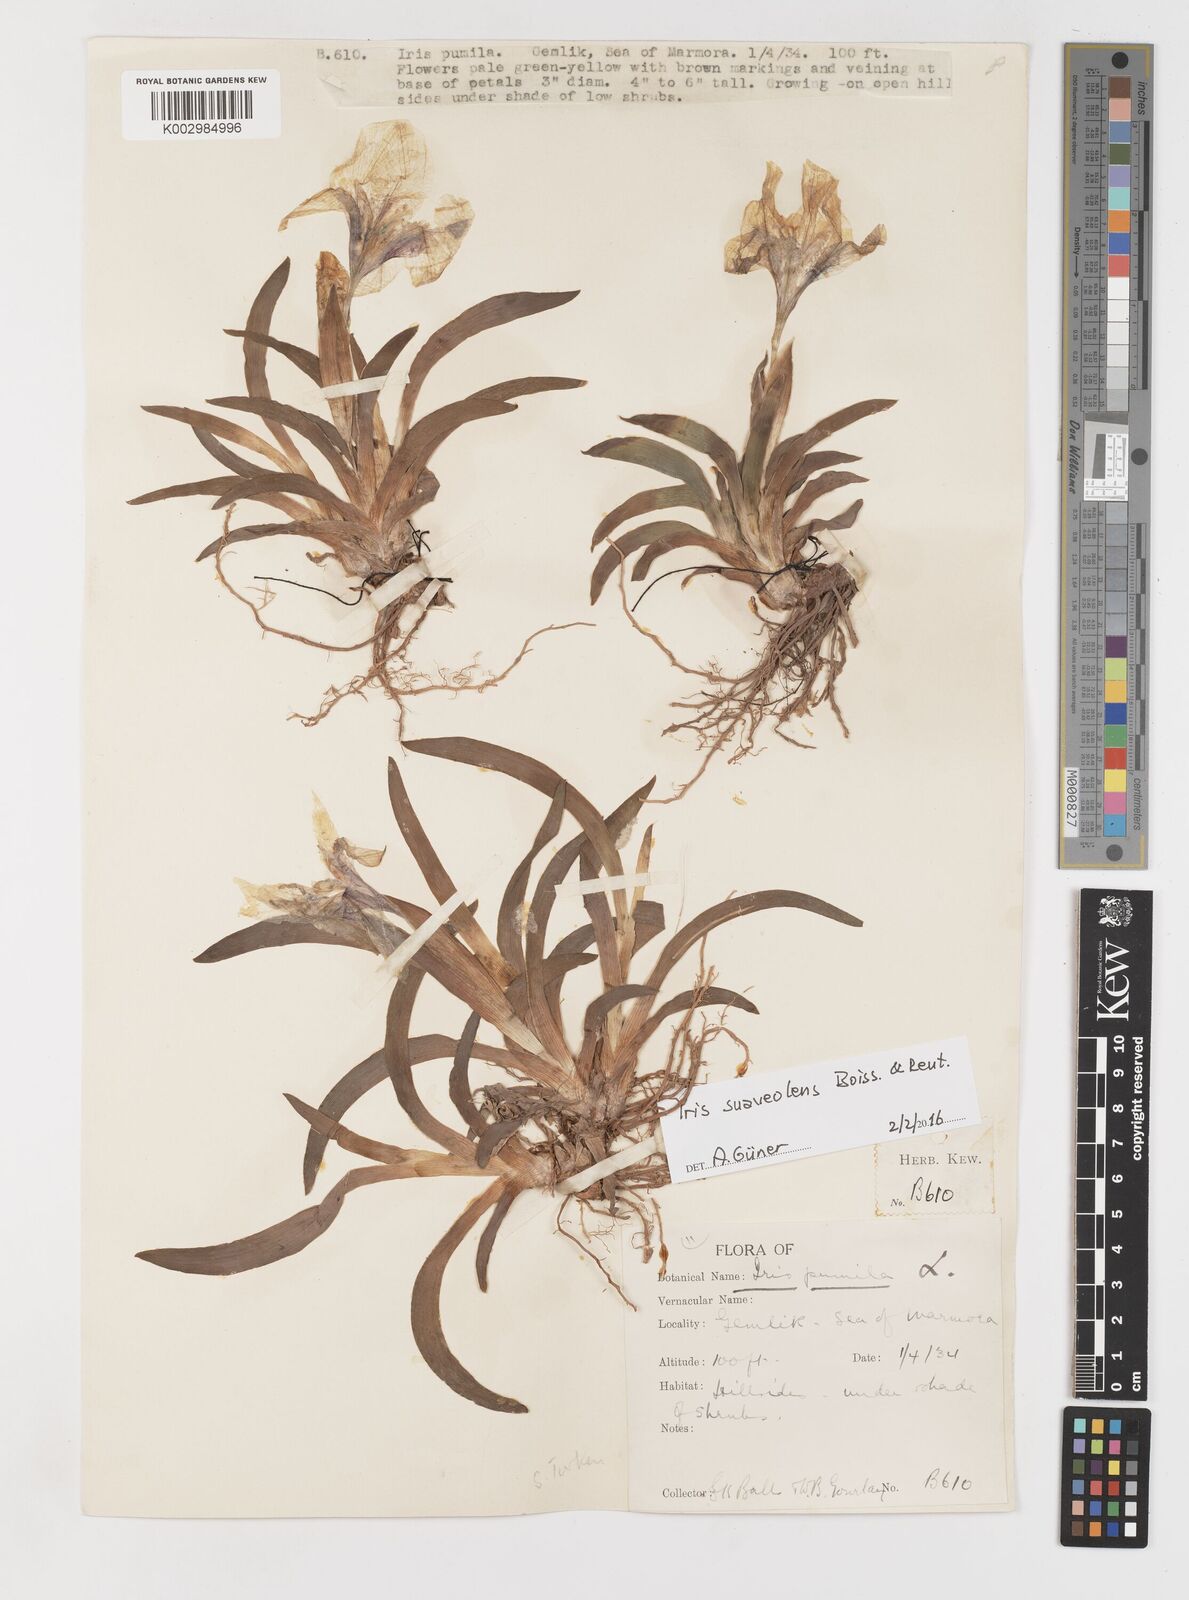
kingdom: Plantae
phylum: Tracheophyta
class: Liliopsida
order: Asparagales
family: Iridaceae
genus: Iris
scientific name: Iris suaveolens
